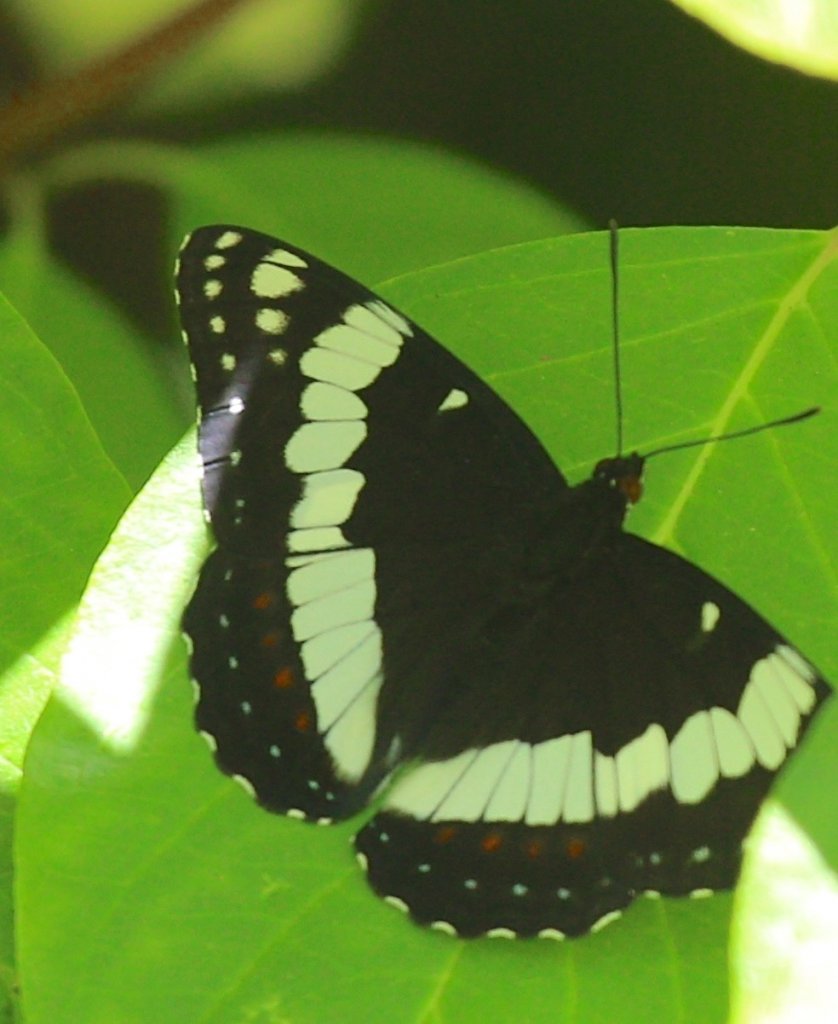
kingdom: Animalia
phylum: Arthropoda
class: Insecta
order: Lepidoptera
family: Nymphalidae
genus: Limenitis
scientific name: Limenitis weidemeyerii
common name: Weidemeyer's Admiral
